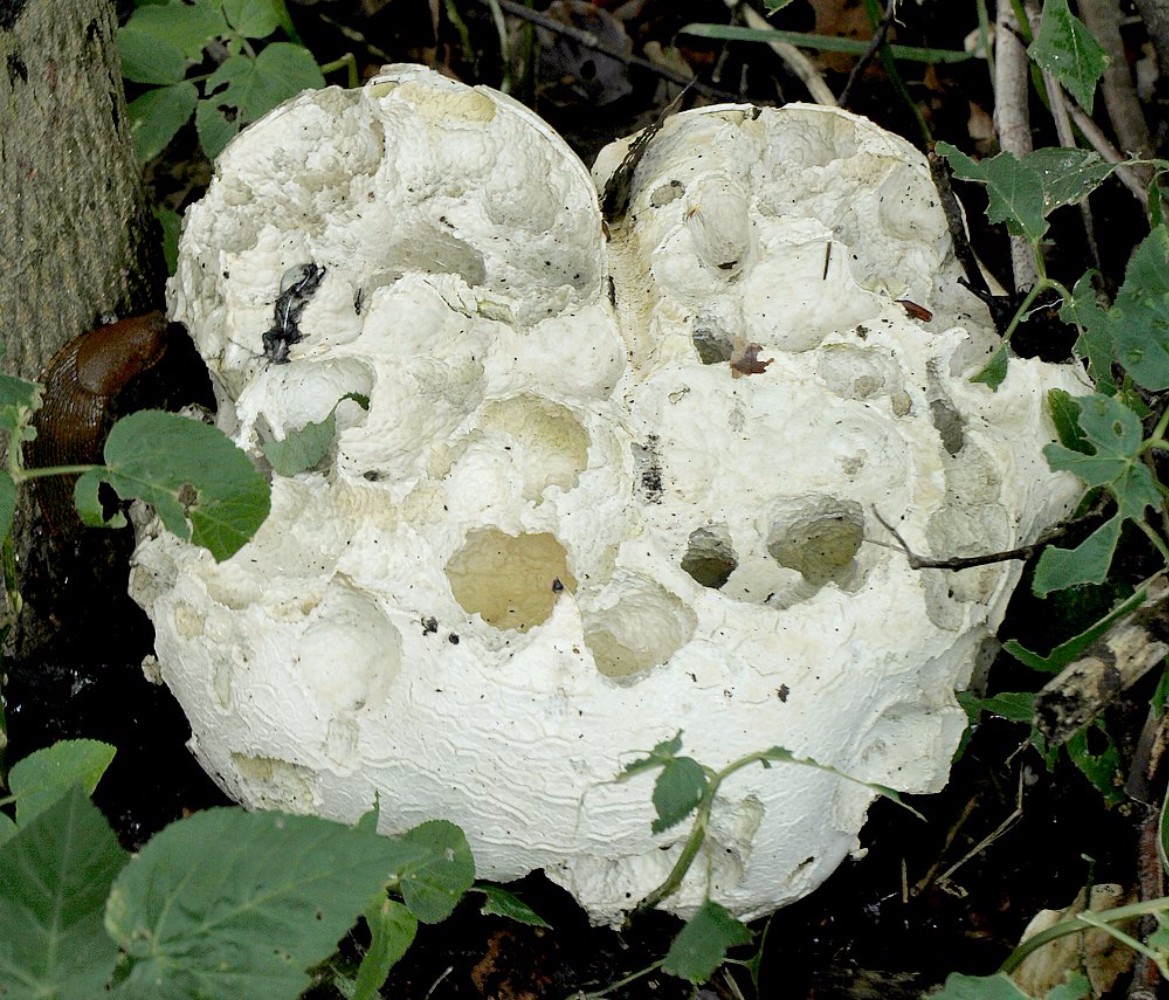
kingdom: Fungi
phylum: Basidiomycota
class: Agaricomycetes
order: Agaricales
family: Lycoperdaceae
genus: Calvatia
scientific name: Calvatia gigantea
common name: kæmpestøvbold
